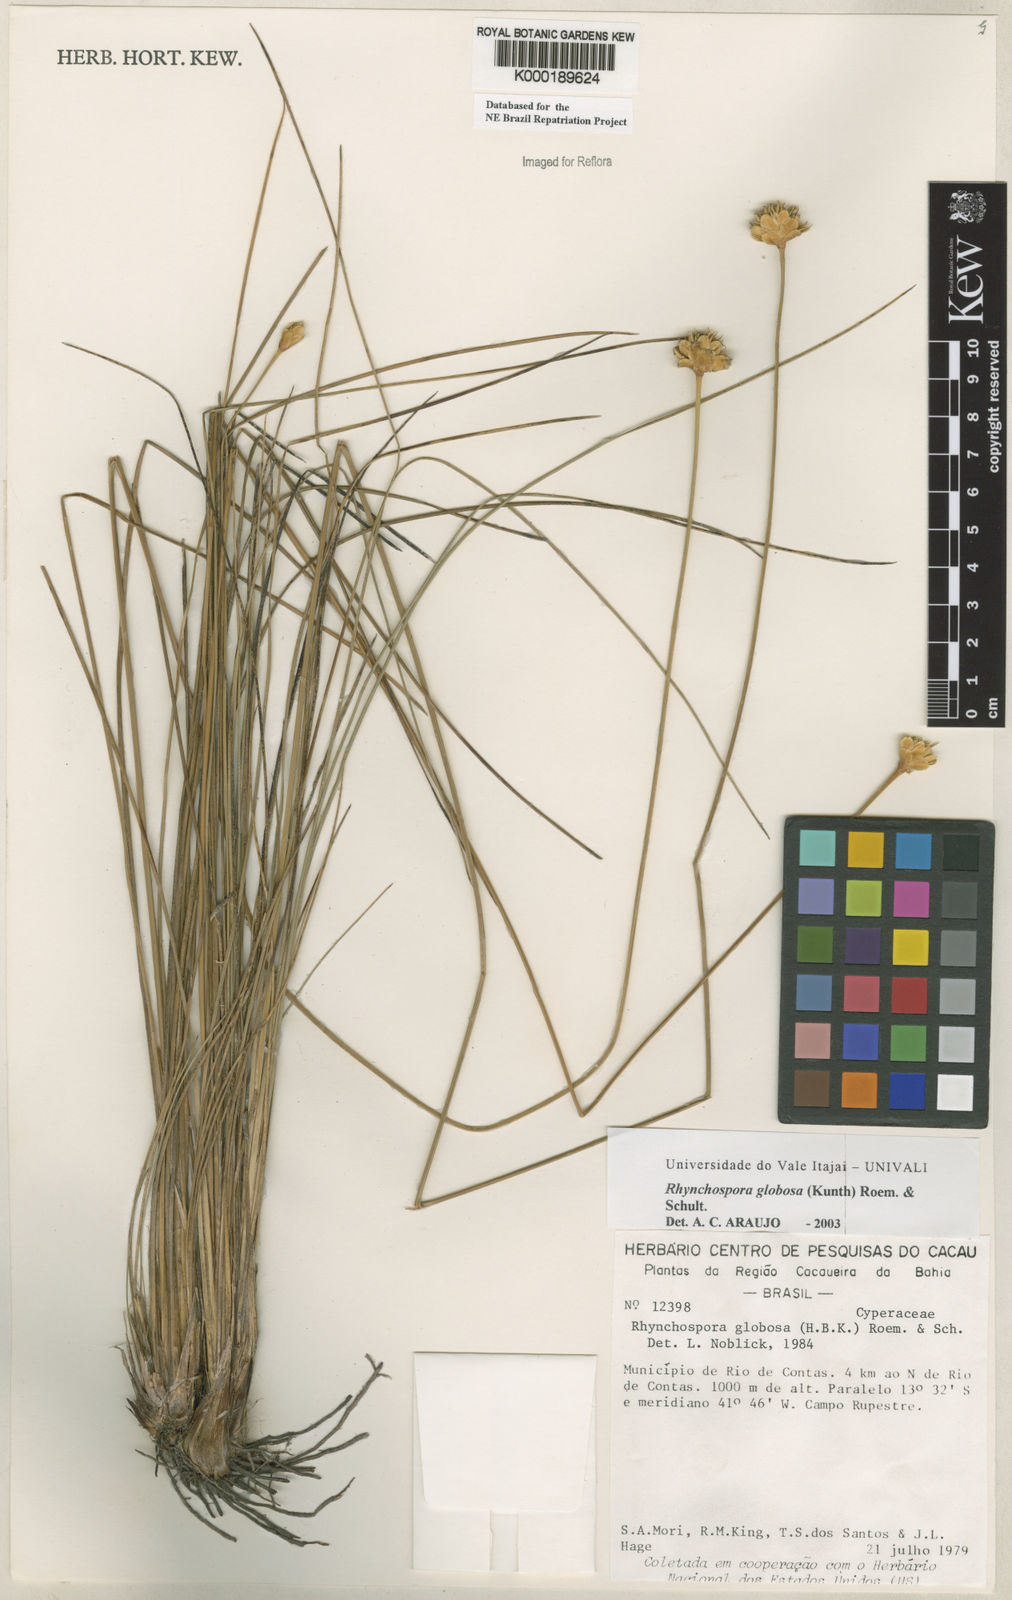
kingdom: Plantae
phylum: Tracheophyta
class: Liliopsida
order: Poales
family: Cyperaceae
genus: Rhynchospora
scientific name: Rhynchospora globosa
